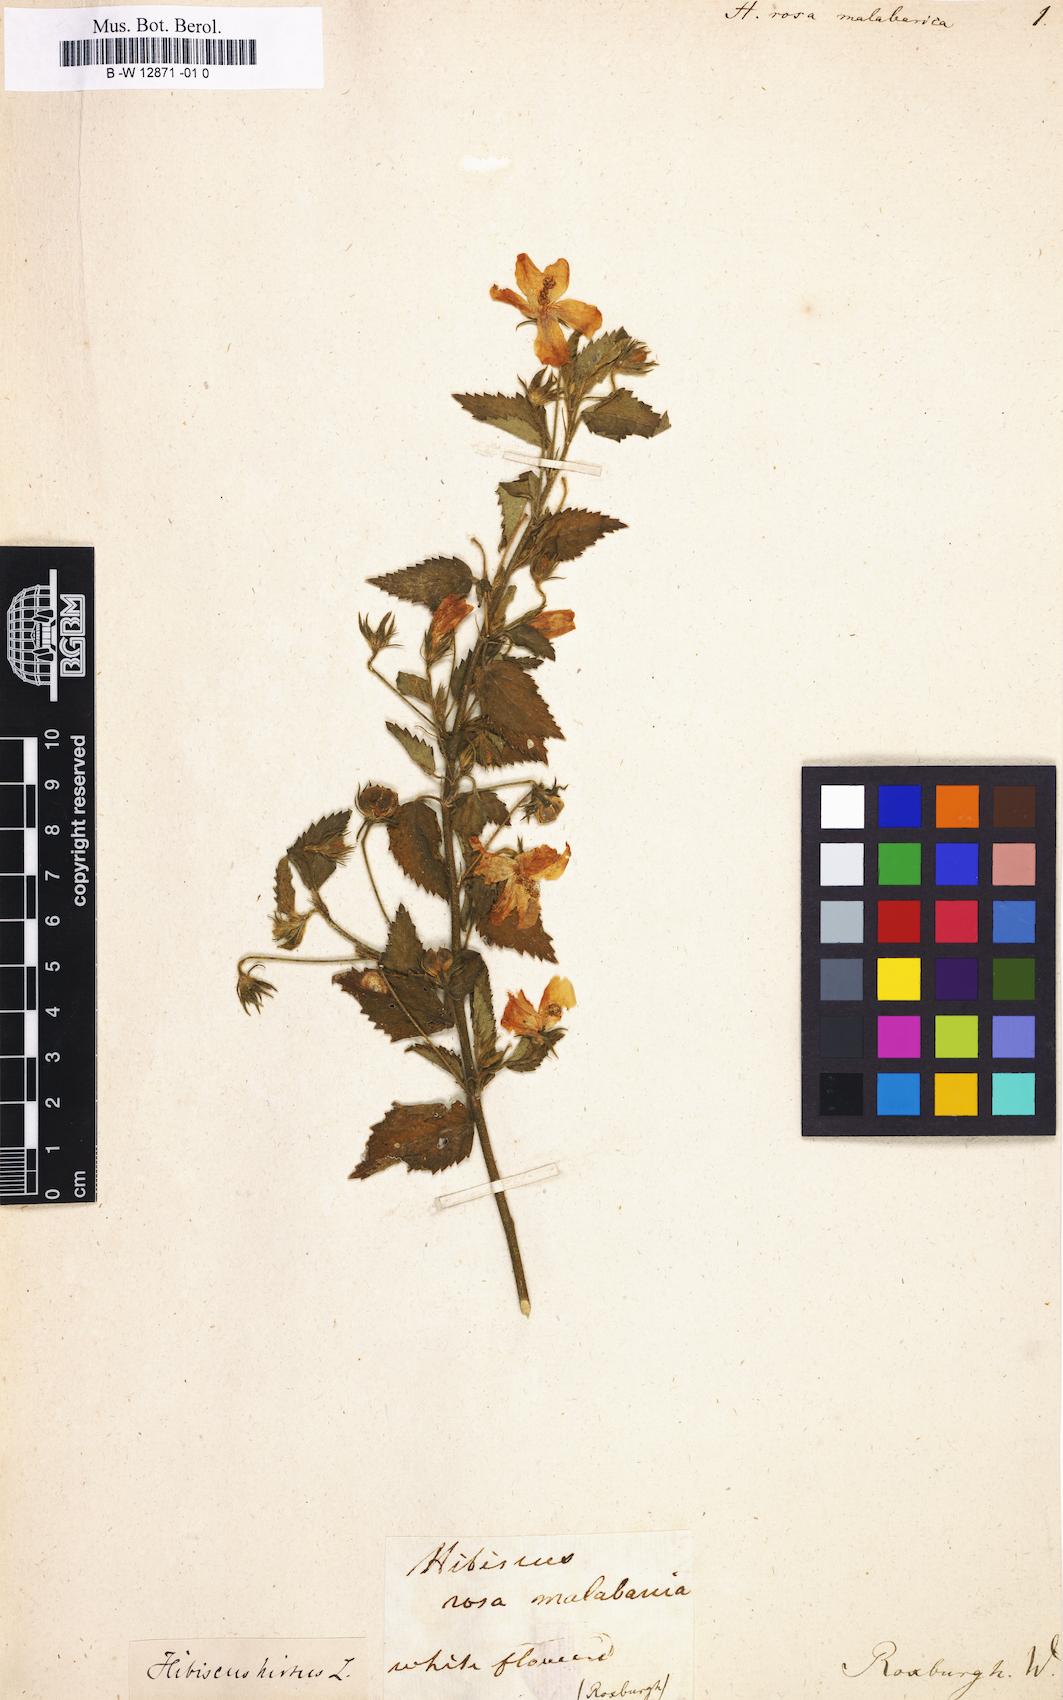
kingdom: Plantae
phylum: Tracheophyta
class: Magnoliopsida
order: Malvales
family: Malvaceae
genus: Hibiscus
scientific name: Hibiscus hirtus
